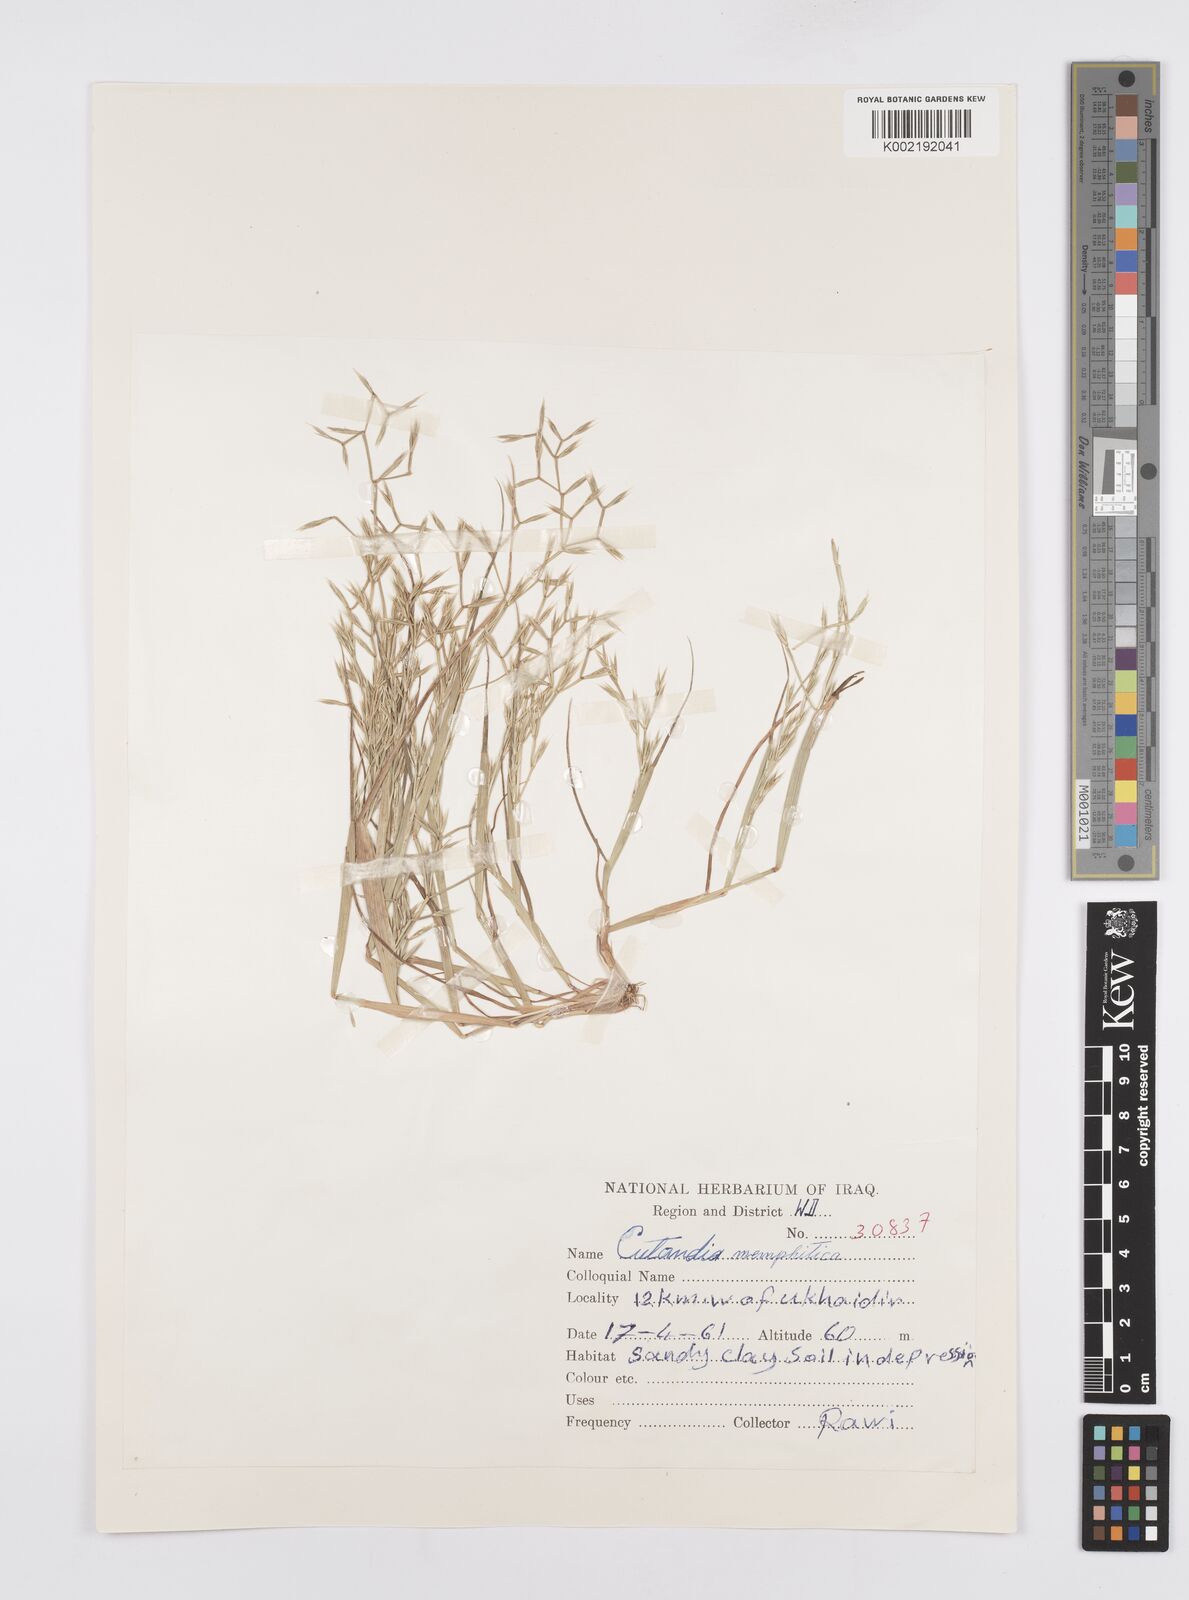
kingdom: Plantae
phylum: Tracheophyta
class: Liliopsida
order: Poales
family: Poaceae
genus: Cutandia
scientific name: Cutandia memphitica
